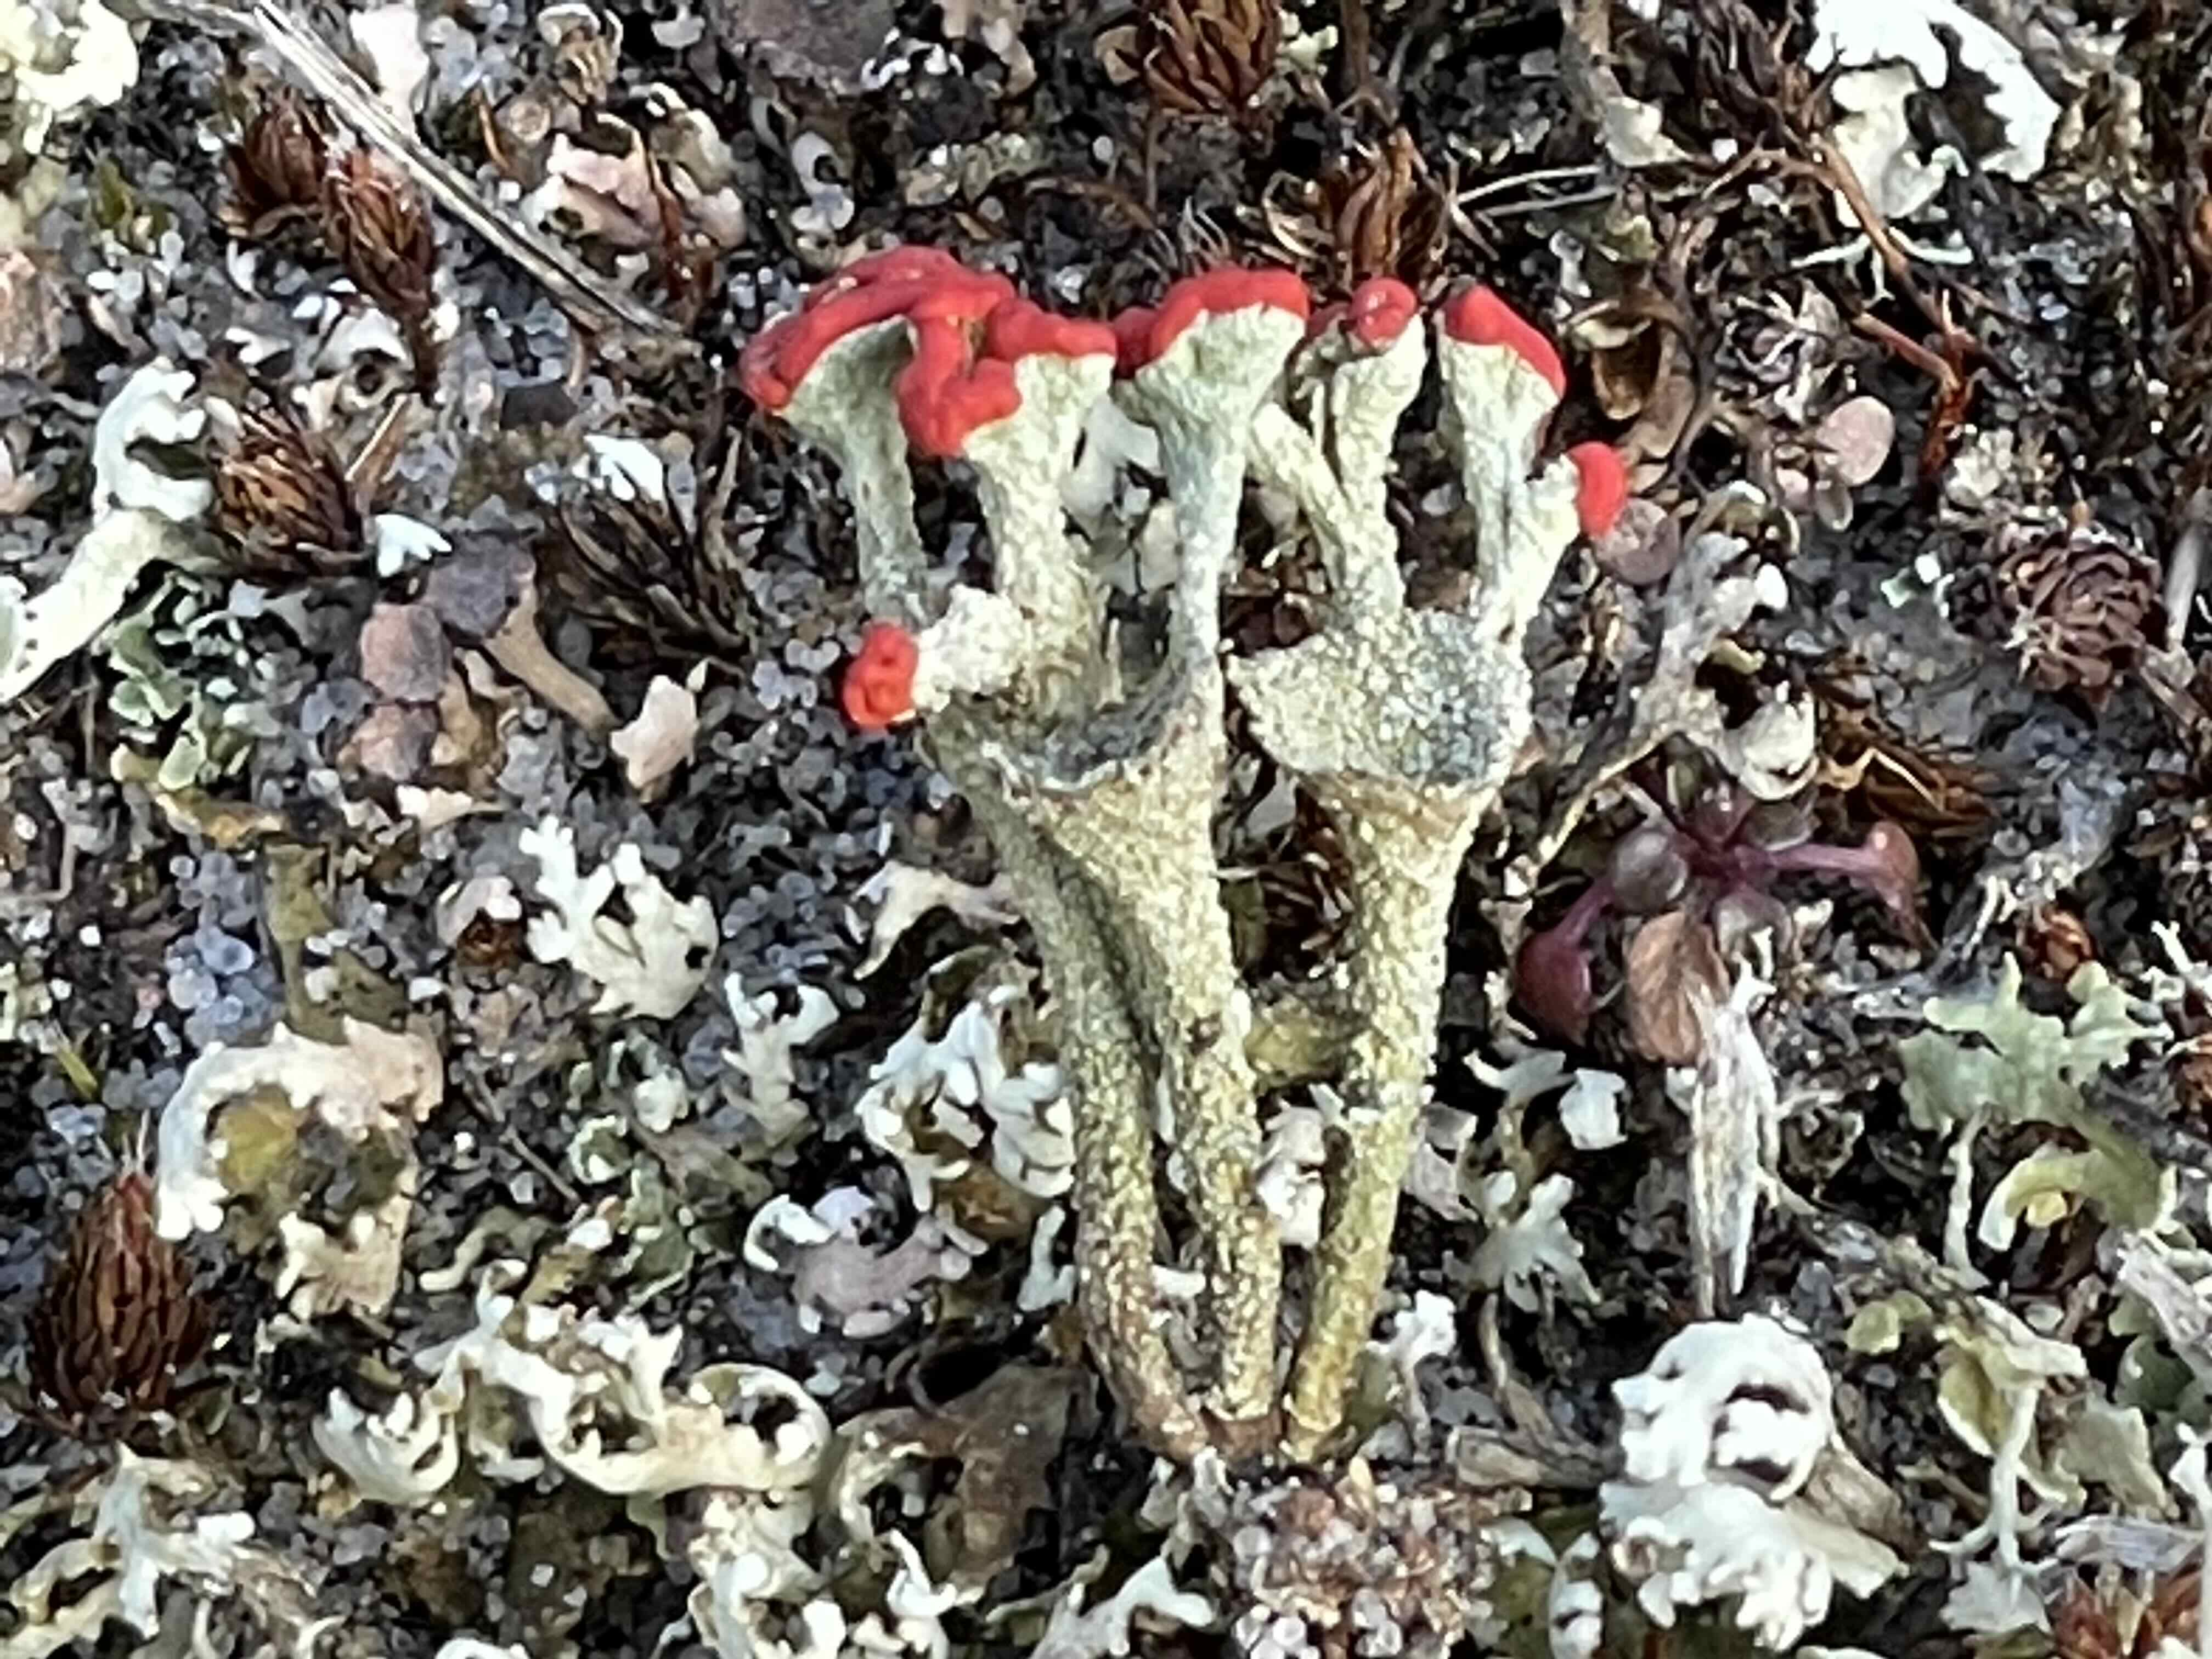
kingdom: Fungi
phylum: Ascomycota
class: Lecanoromycetes
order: Lecanorales
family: Cladoniaceae
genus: Cladonia
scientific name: Cladonia diversa
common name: rød bægerlav
